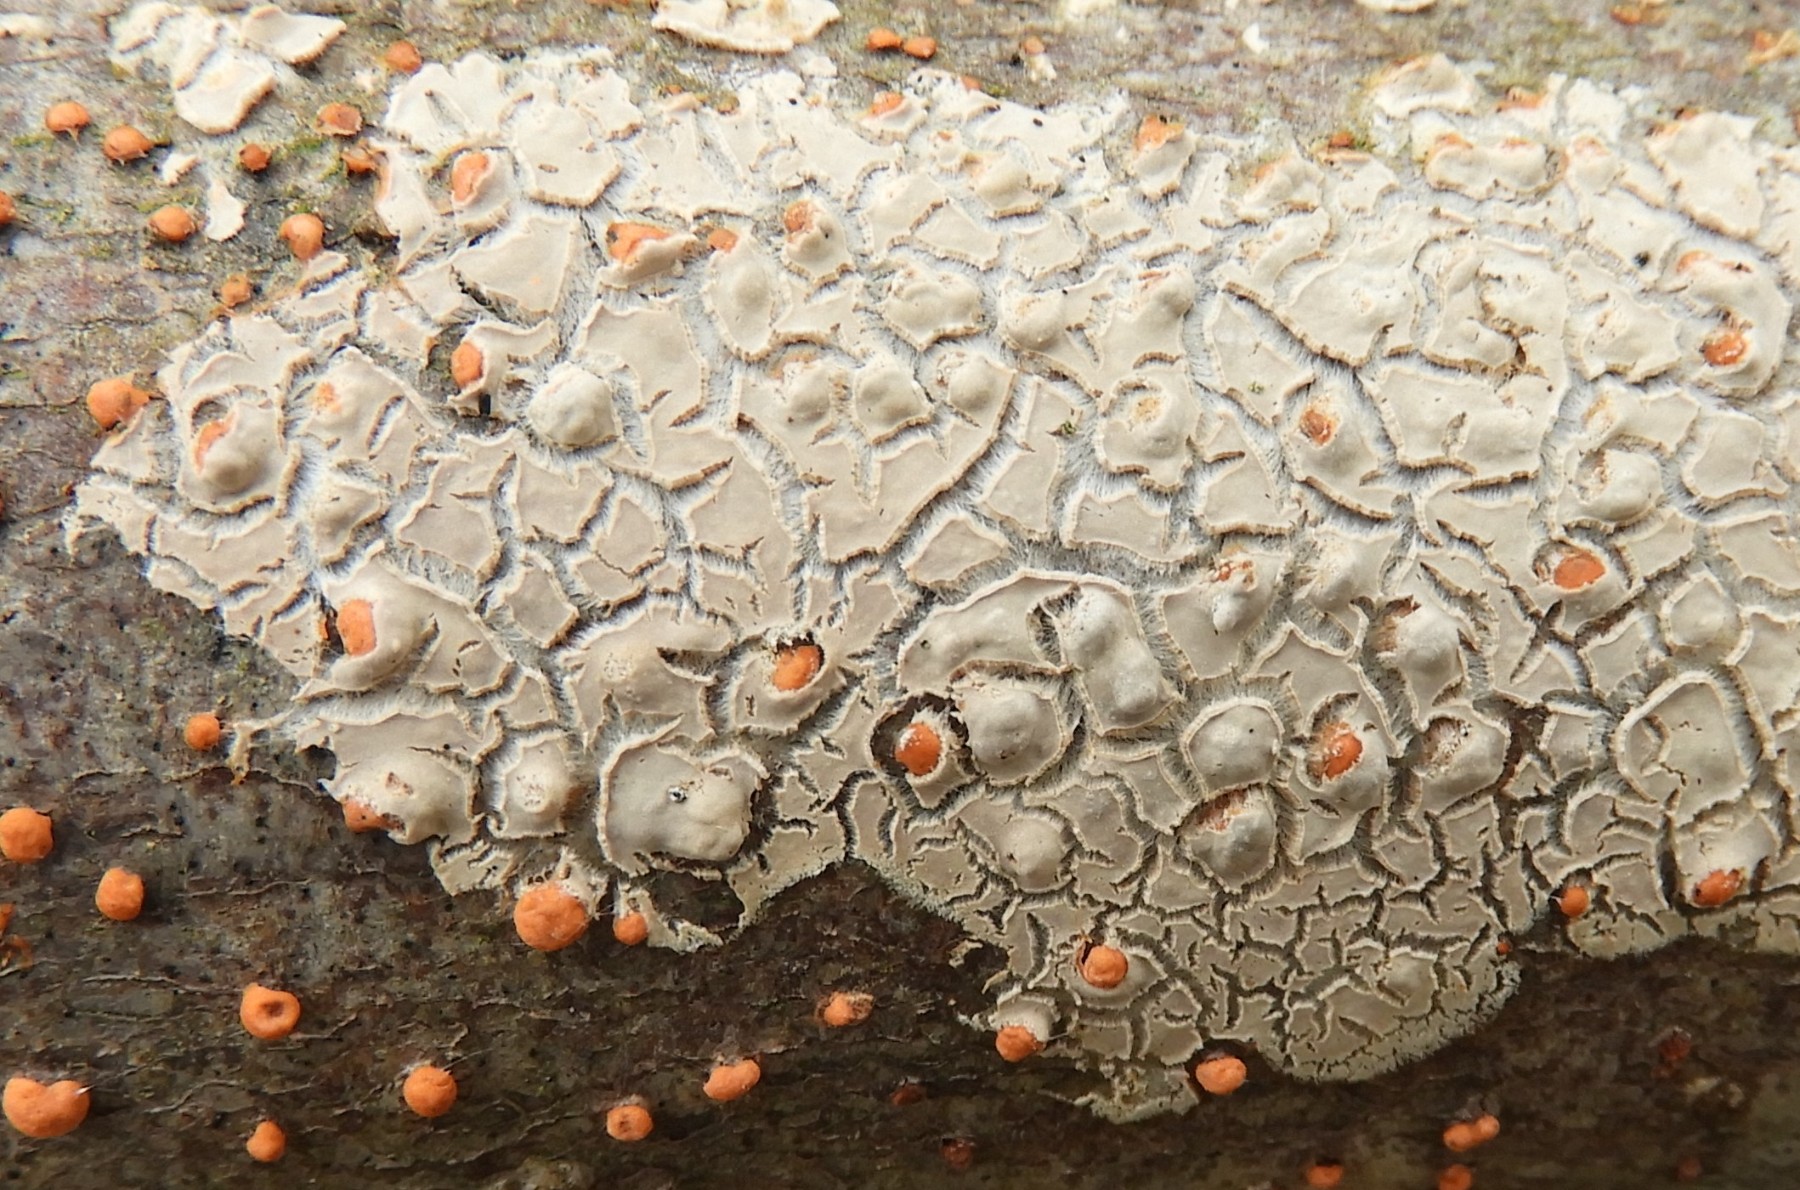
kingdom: Fungi
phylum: Basidiomycota
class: Agaricomycetes
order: Agaricales
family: Physalacriaceae
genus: Cylindrobasidium
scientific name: Cylindrobasidium
